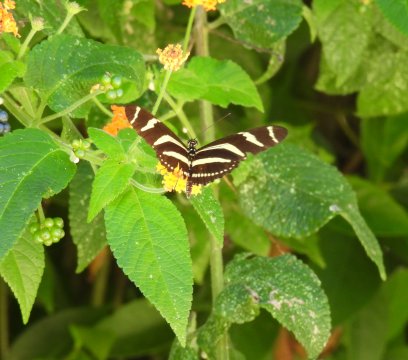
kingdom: Animalia
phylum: Arthropoda
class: Insecta
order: Lepidoptera
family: Nymphalidae
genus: Heliconius
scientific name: Heliconius charithonia
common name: Zebra Longwing
